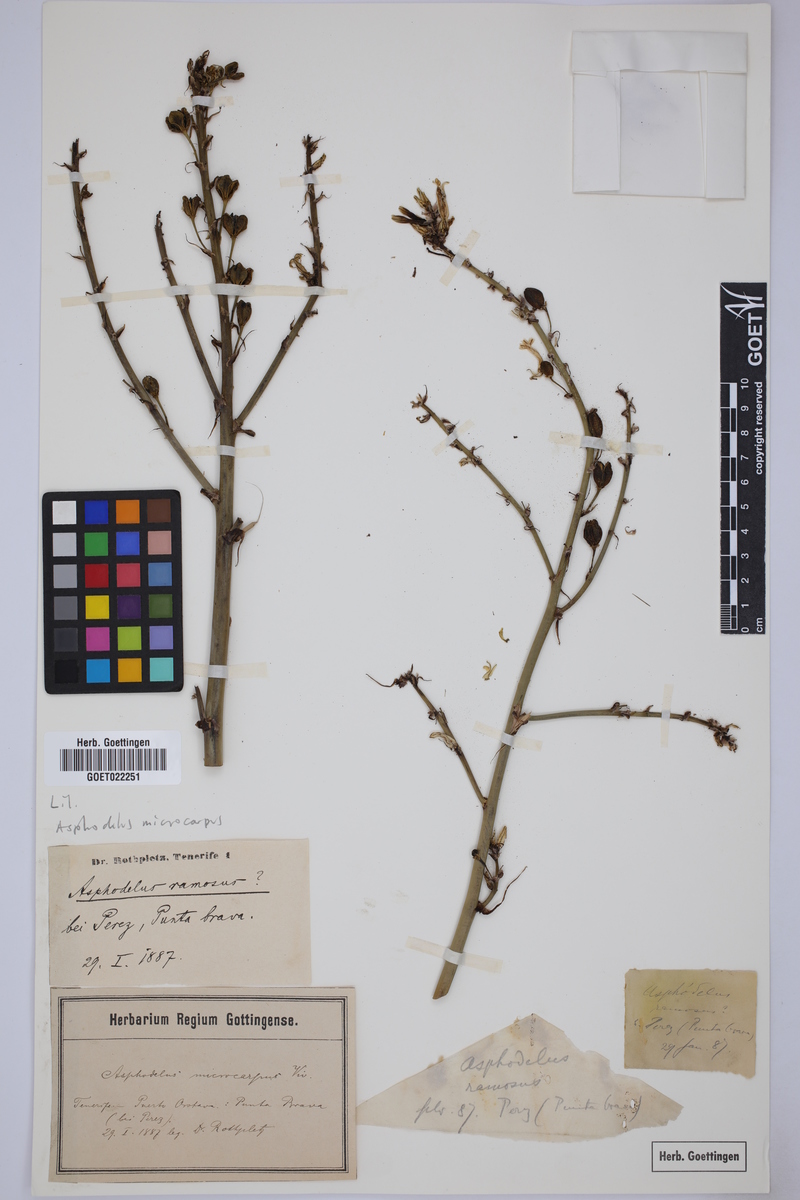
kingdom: Plantae
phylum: Tracheophyta
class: Liliopsida
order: Asparagales
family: Asphodelaceae
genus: Asphodelus
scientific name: Asphodelus tenuifolius
